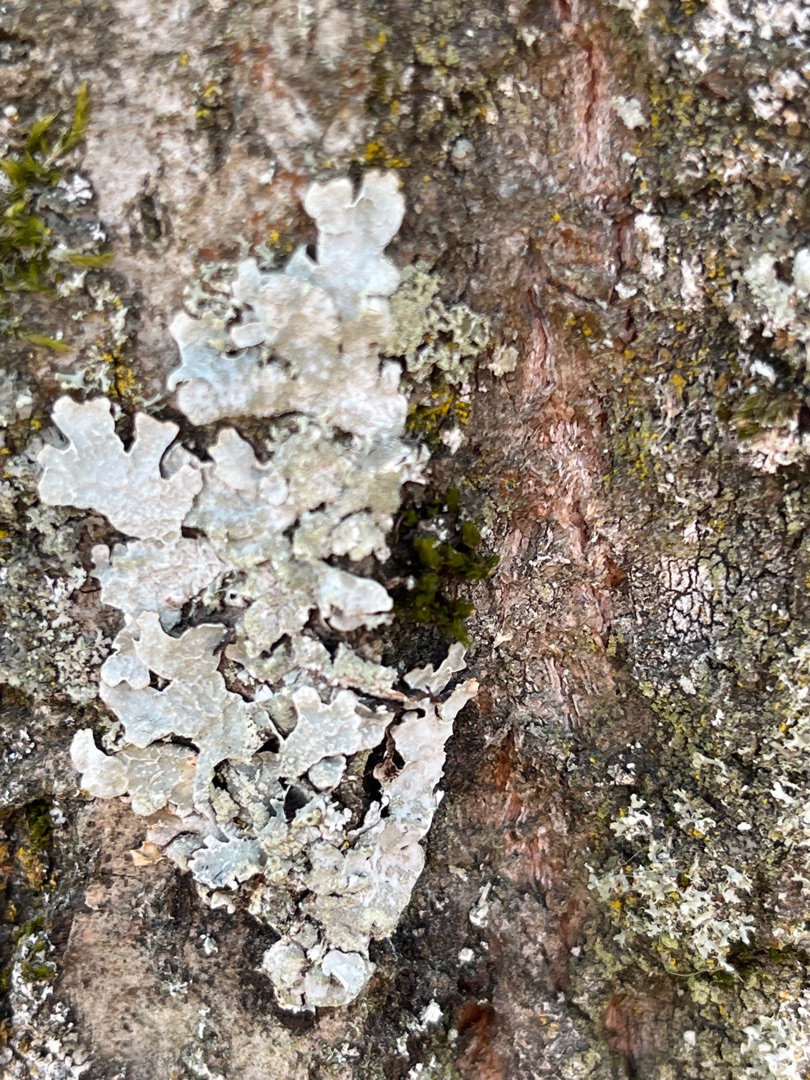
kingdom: Fungi
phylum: Ascomycota
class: Lecanoromycetes
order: Lecanorales
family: Parmeliaceae
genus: Parmelia
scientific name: Parmelia sulcata
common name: Rynket skållav
